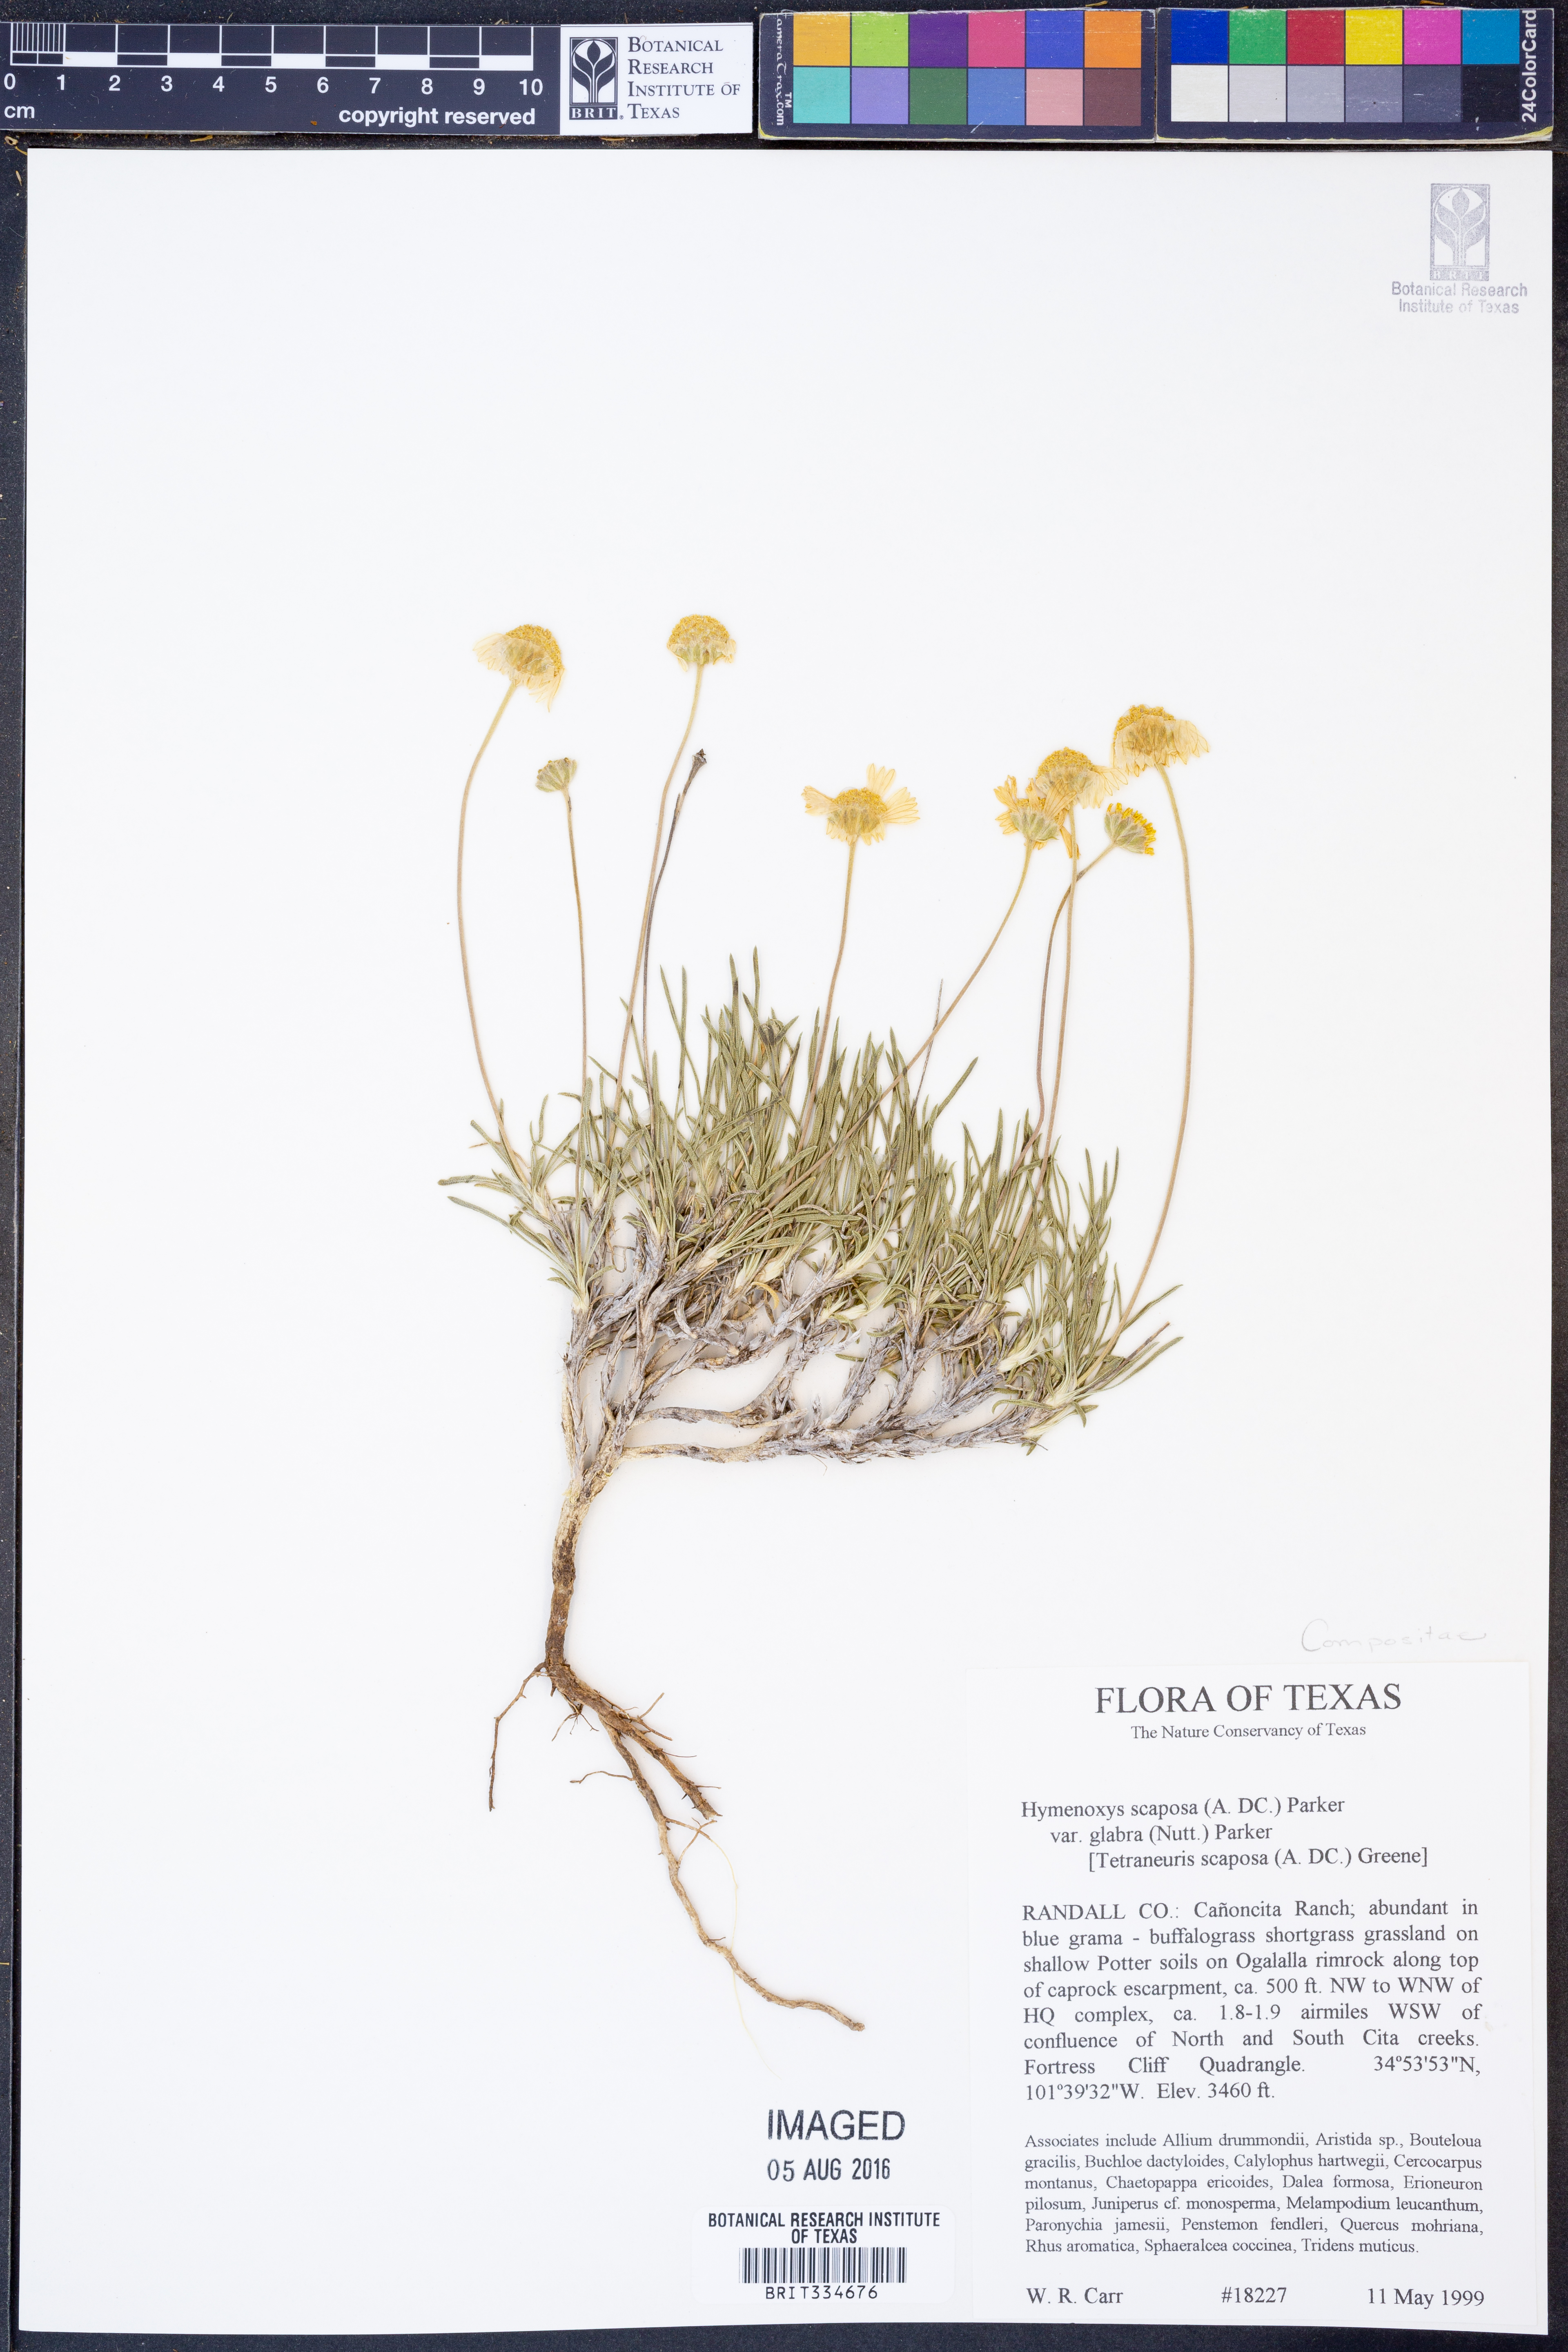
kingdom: Plantae
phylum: Tracheophyta
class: Magnoliopsida
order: Asterales
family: Asteraceae
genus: Tetraneuris
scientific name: Tetraneuris scaposa
